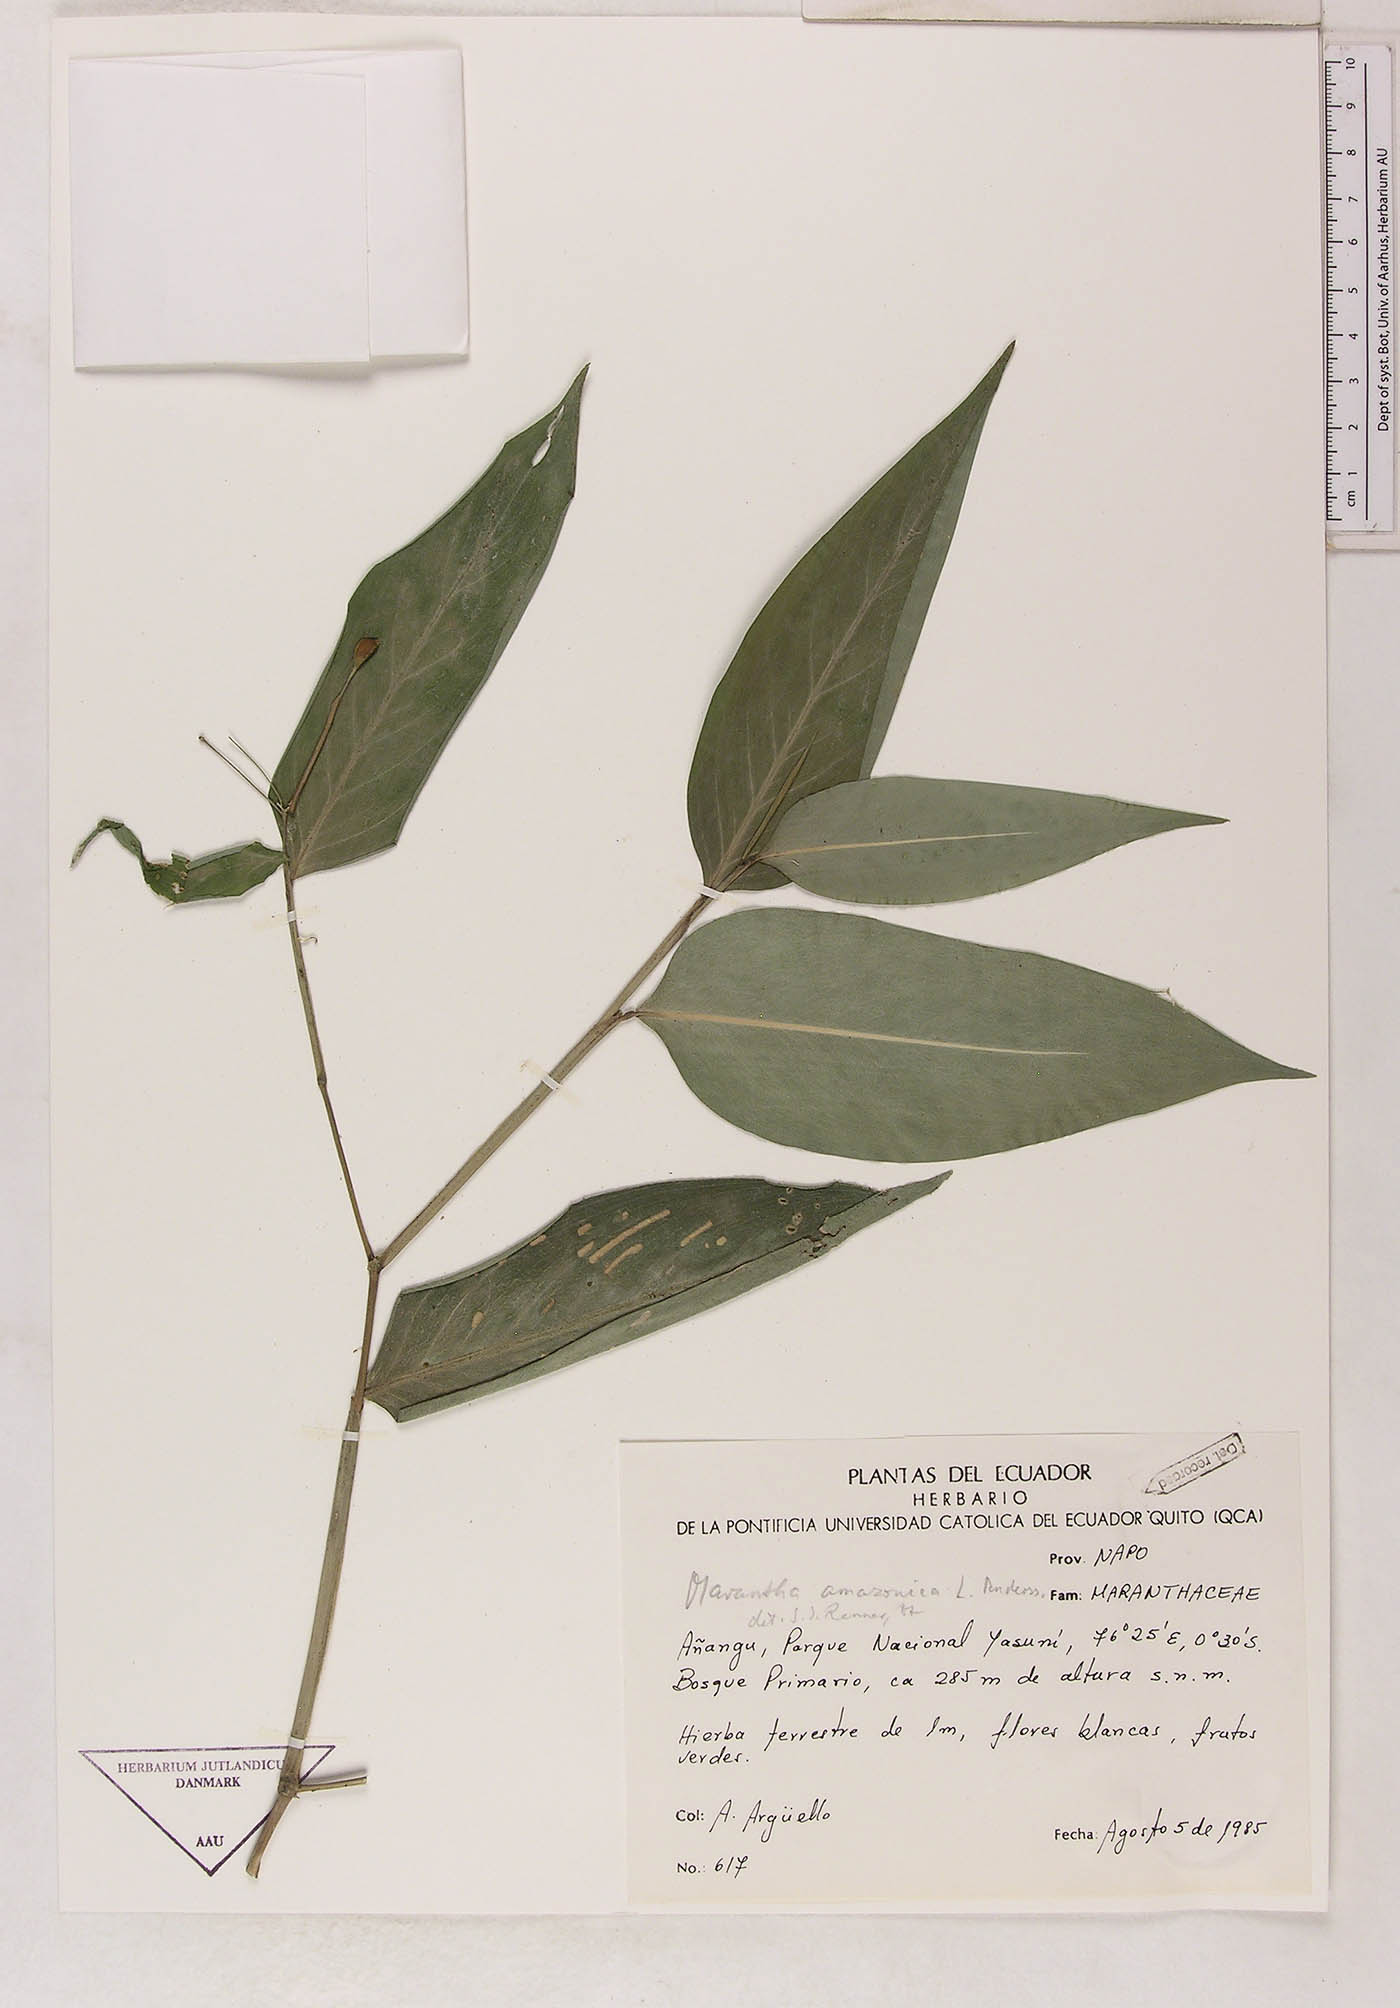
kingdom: Plantae
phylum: Tracheophyta
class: Liliopsida
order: Zingiberales
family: Marantaceae
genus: Maranta
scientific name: Maranta amazonica
